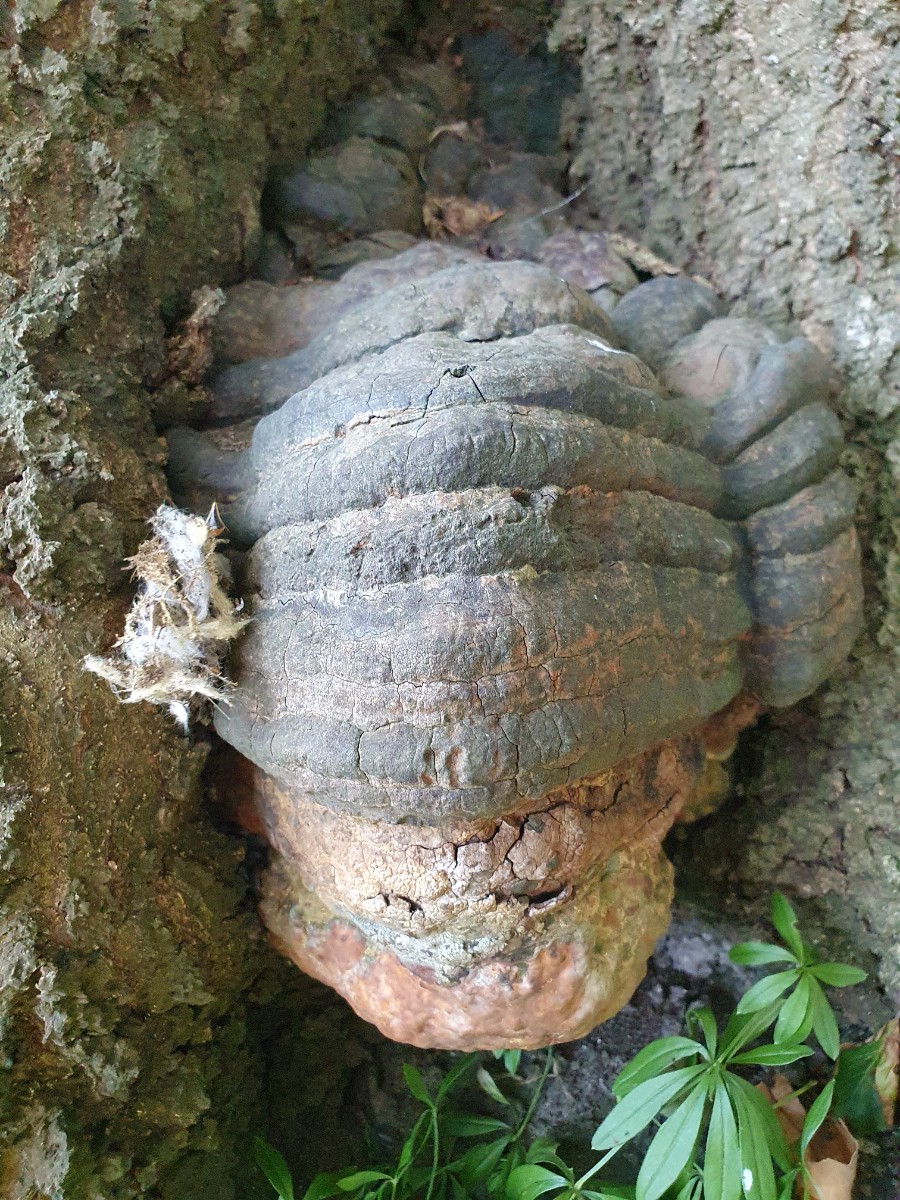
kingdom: Fungi
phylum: Basidiomycota
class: Agaricomycetes
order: Polyporales
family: Polyporaceae
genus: Ganoderma
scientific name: Ganoderma pfeifferi
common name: kobberrød lakporesvamp
